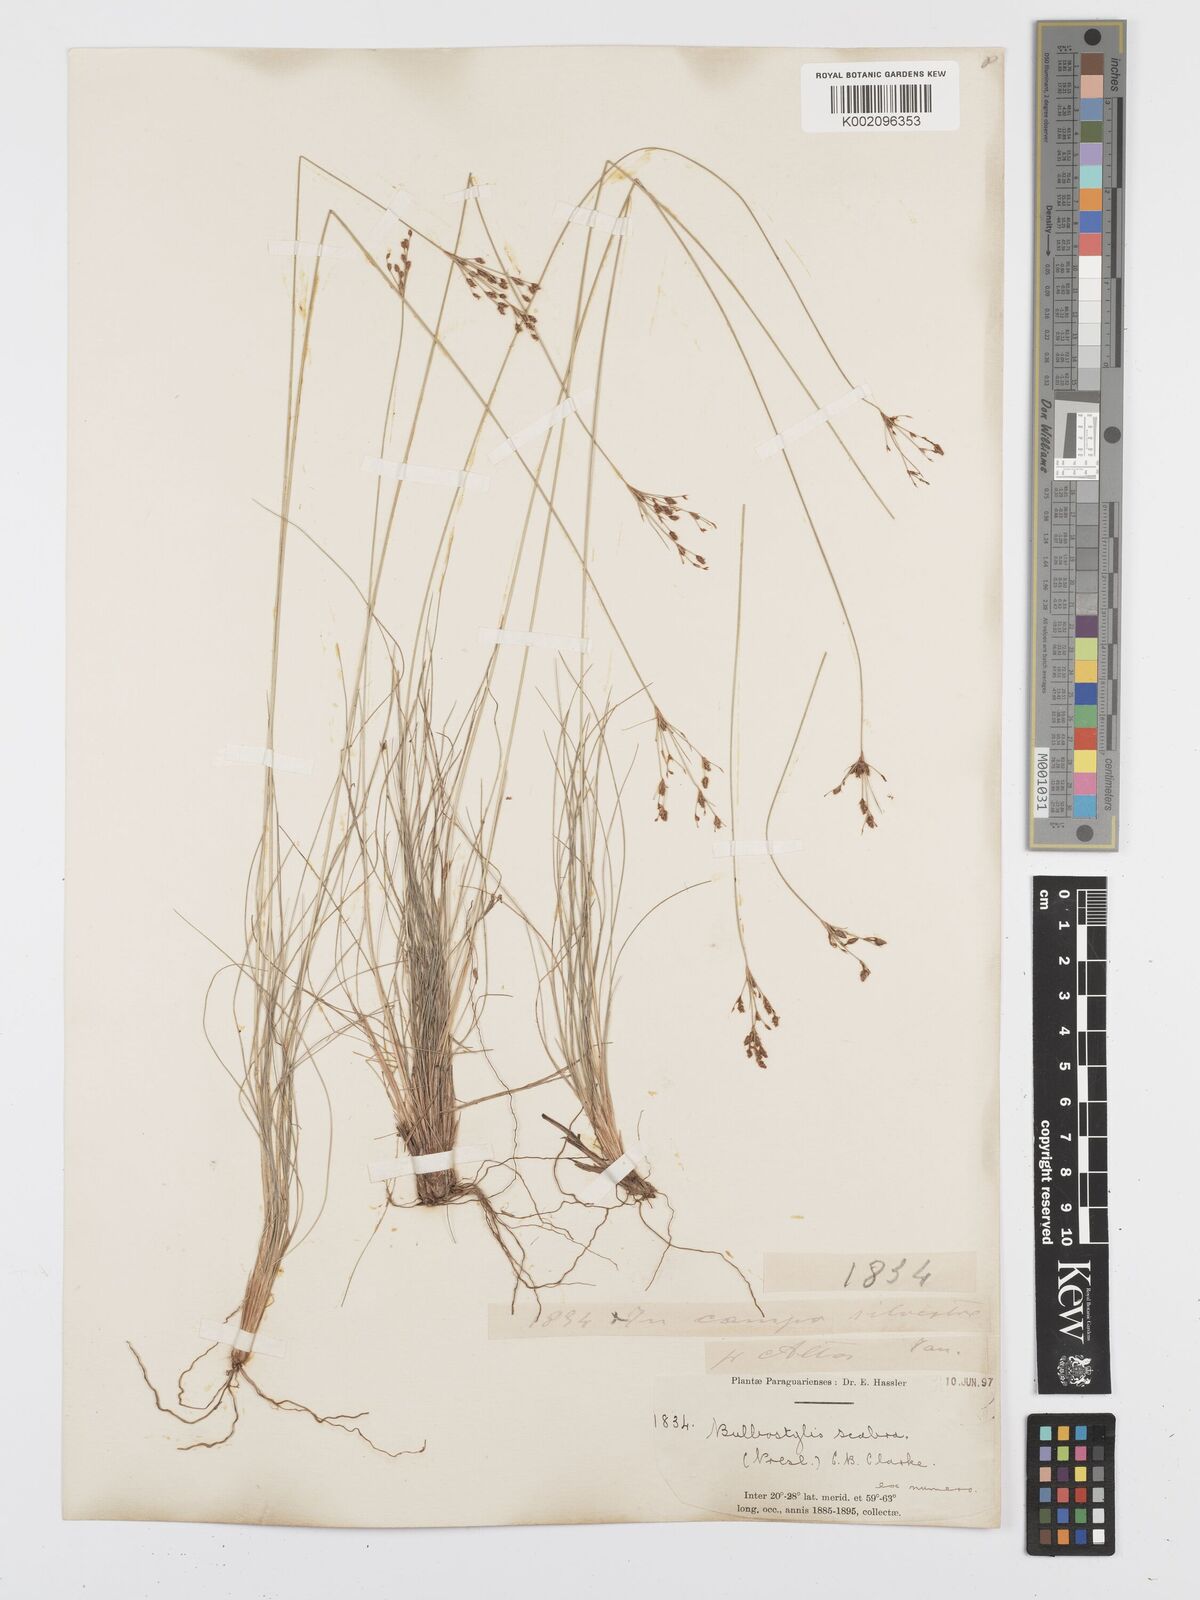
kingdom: Plantae
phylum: Tracheophyta
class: Liliopsida
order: Poales
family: Cyperaceae
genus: Bulbostylis
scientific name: Bulbostylis scabra
